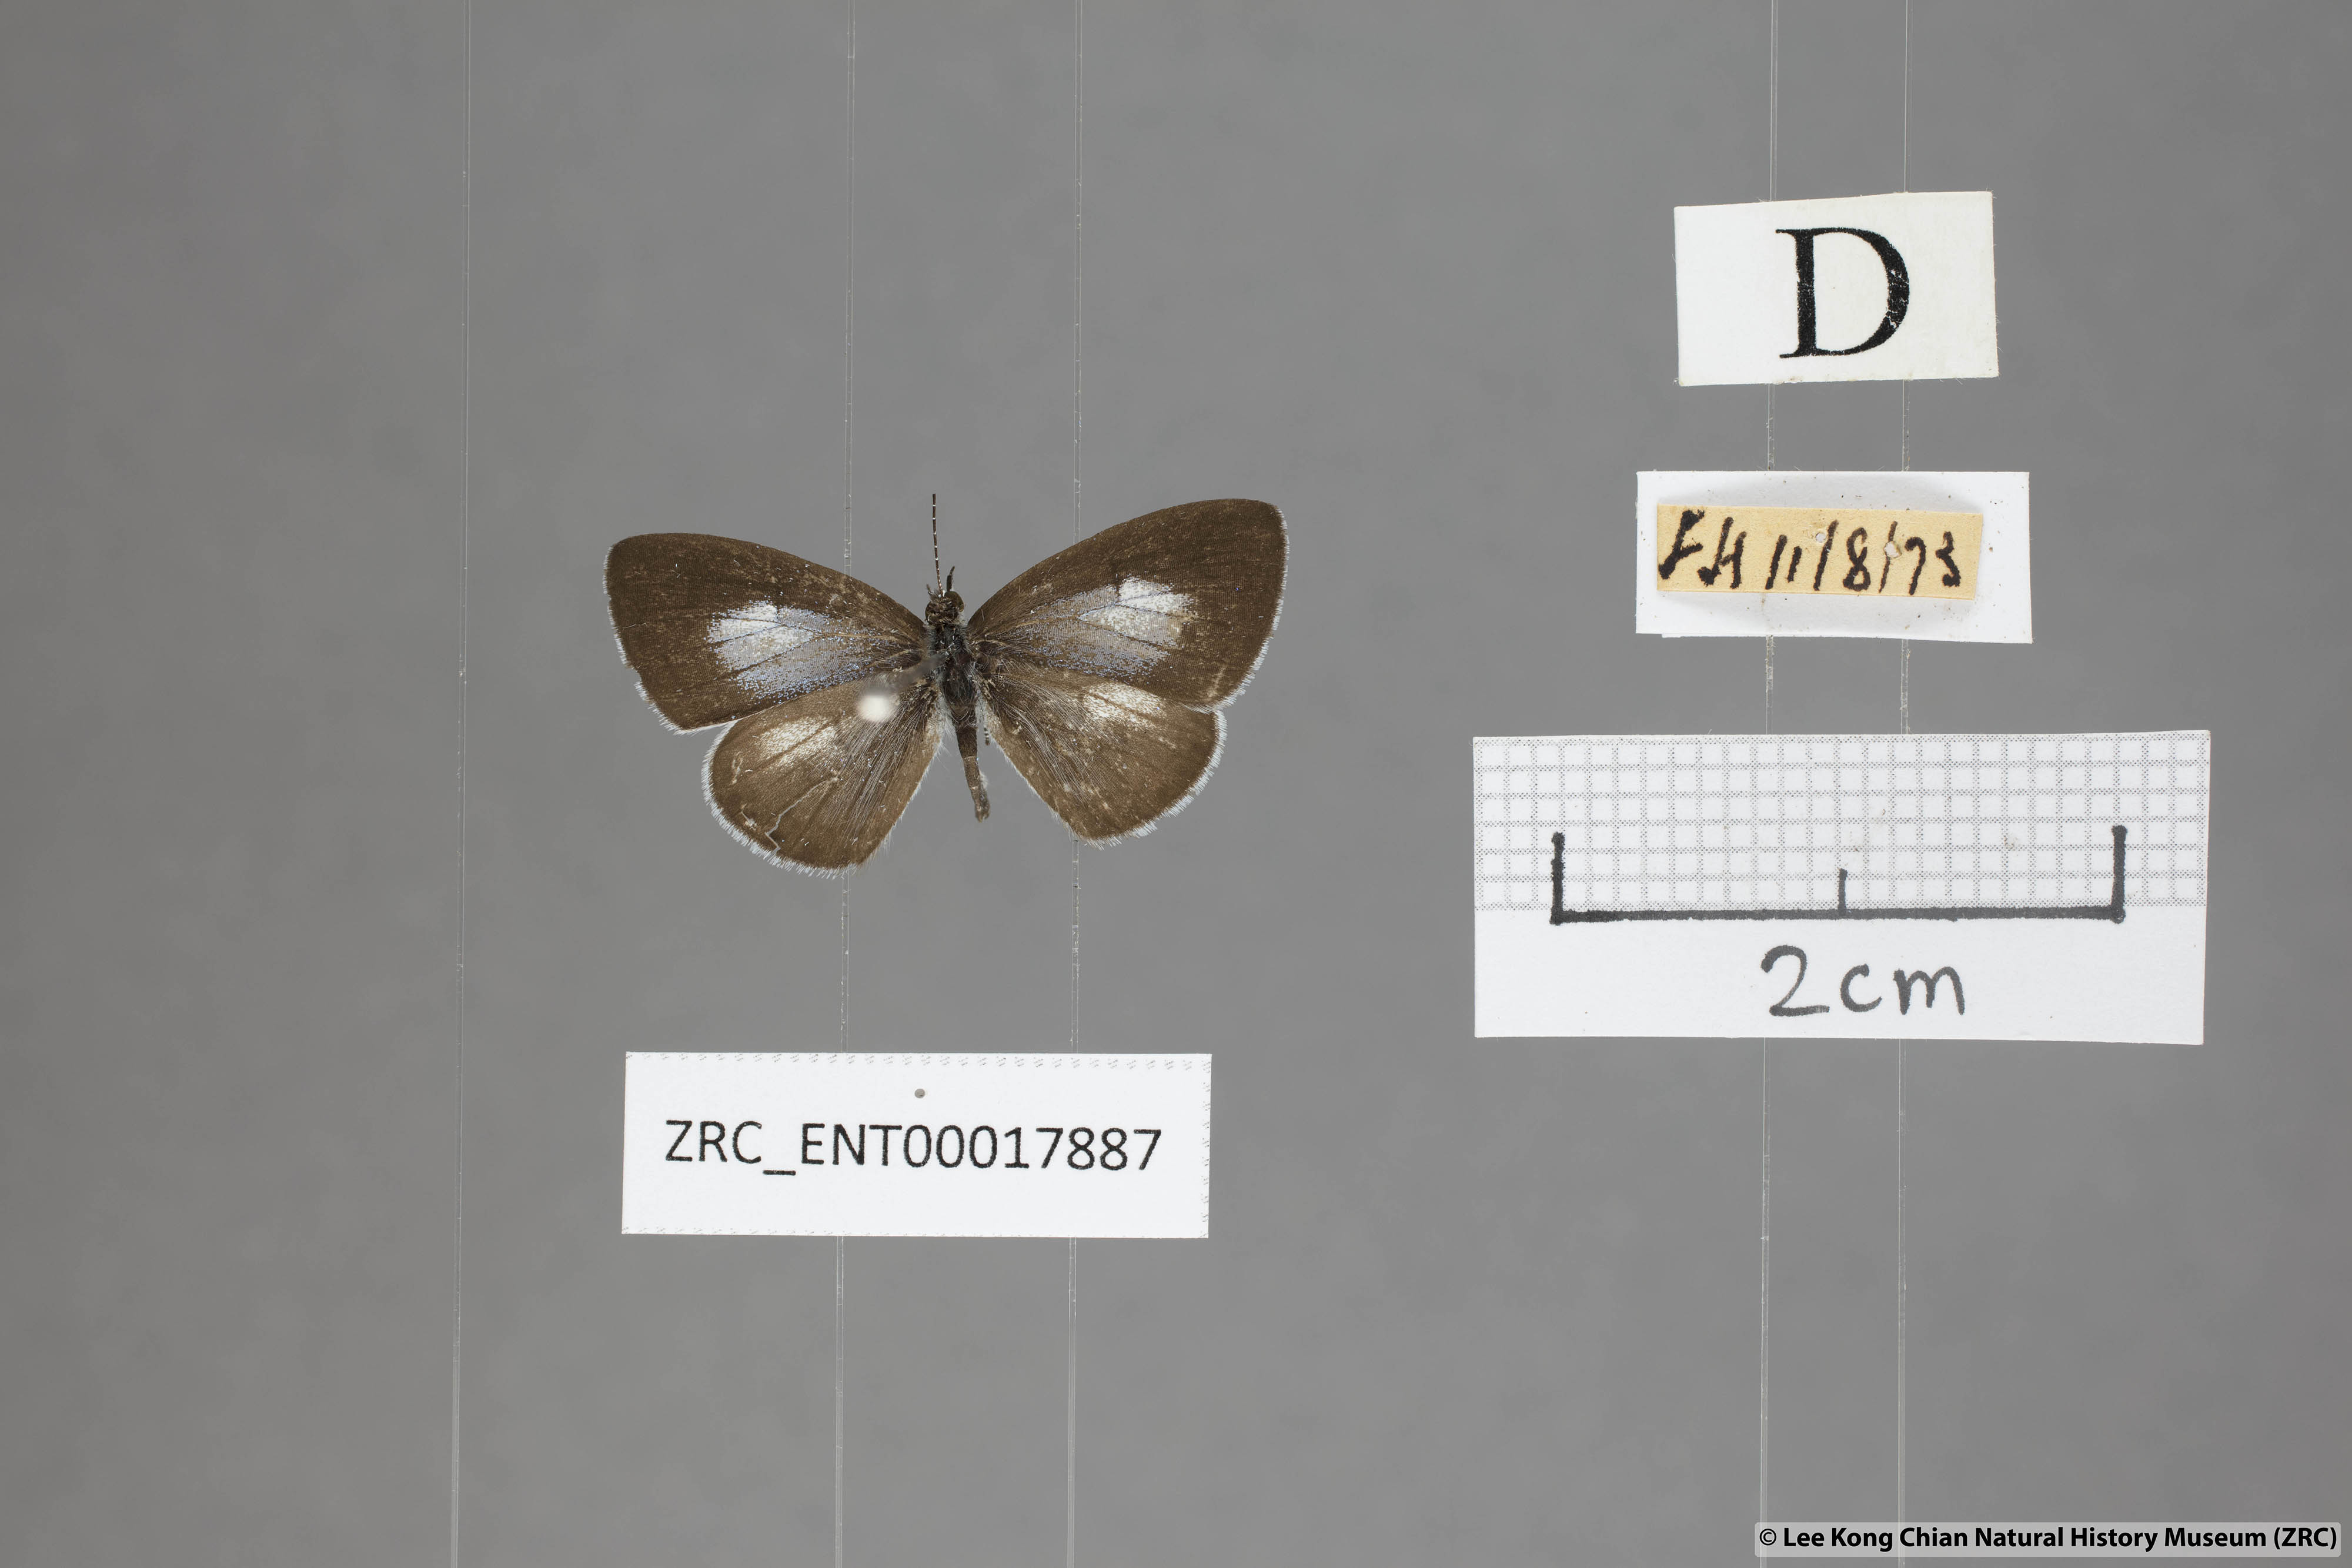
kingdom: Animalia
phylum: Arthropoda
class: Insecta
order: Lepidoptera
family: Lycaenidae
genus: Oreolyce
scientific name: Oreolyce
